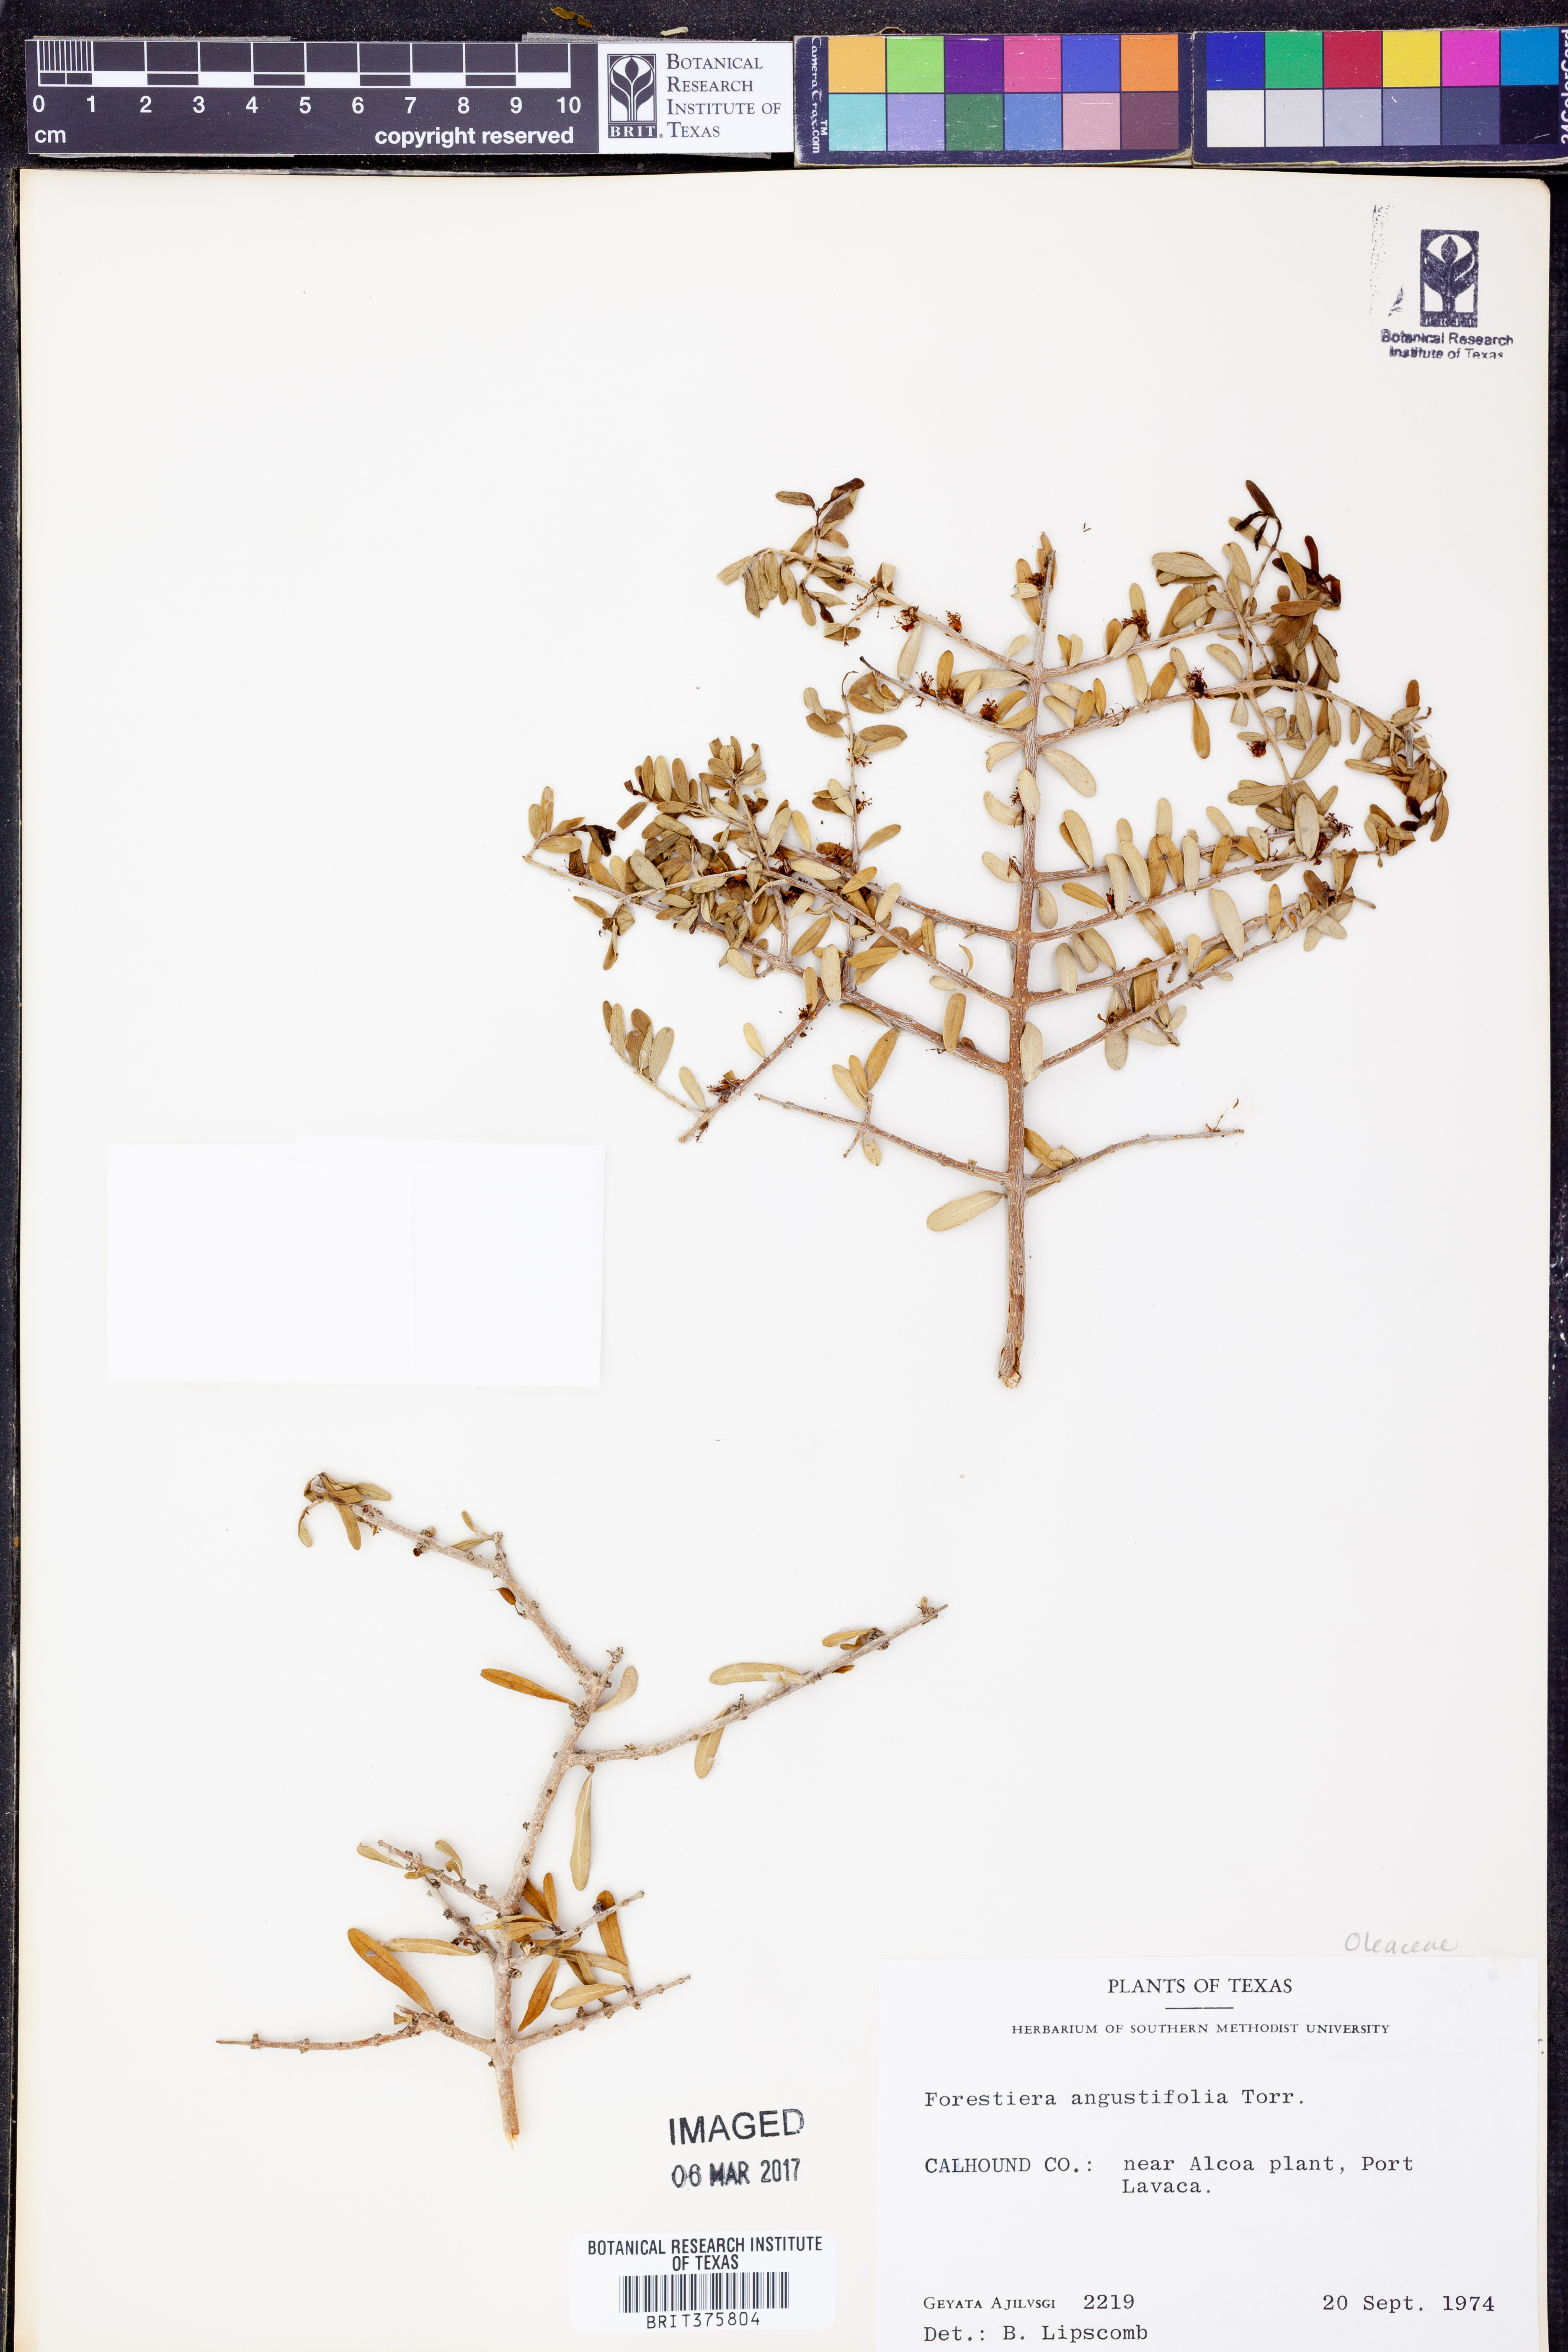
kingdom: Plantae
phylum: Tracheophyta
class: Magnoliopsida
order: Lamiales
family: Oleaceae
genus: Forestiera
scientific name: Forestiera angustifolia
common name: Elbowbush
